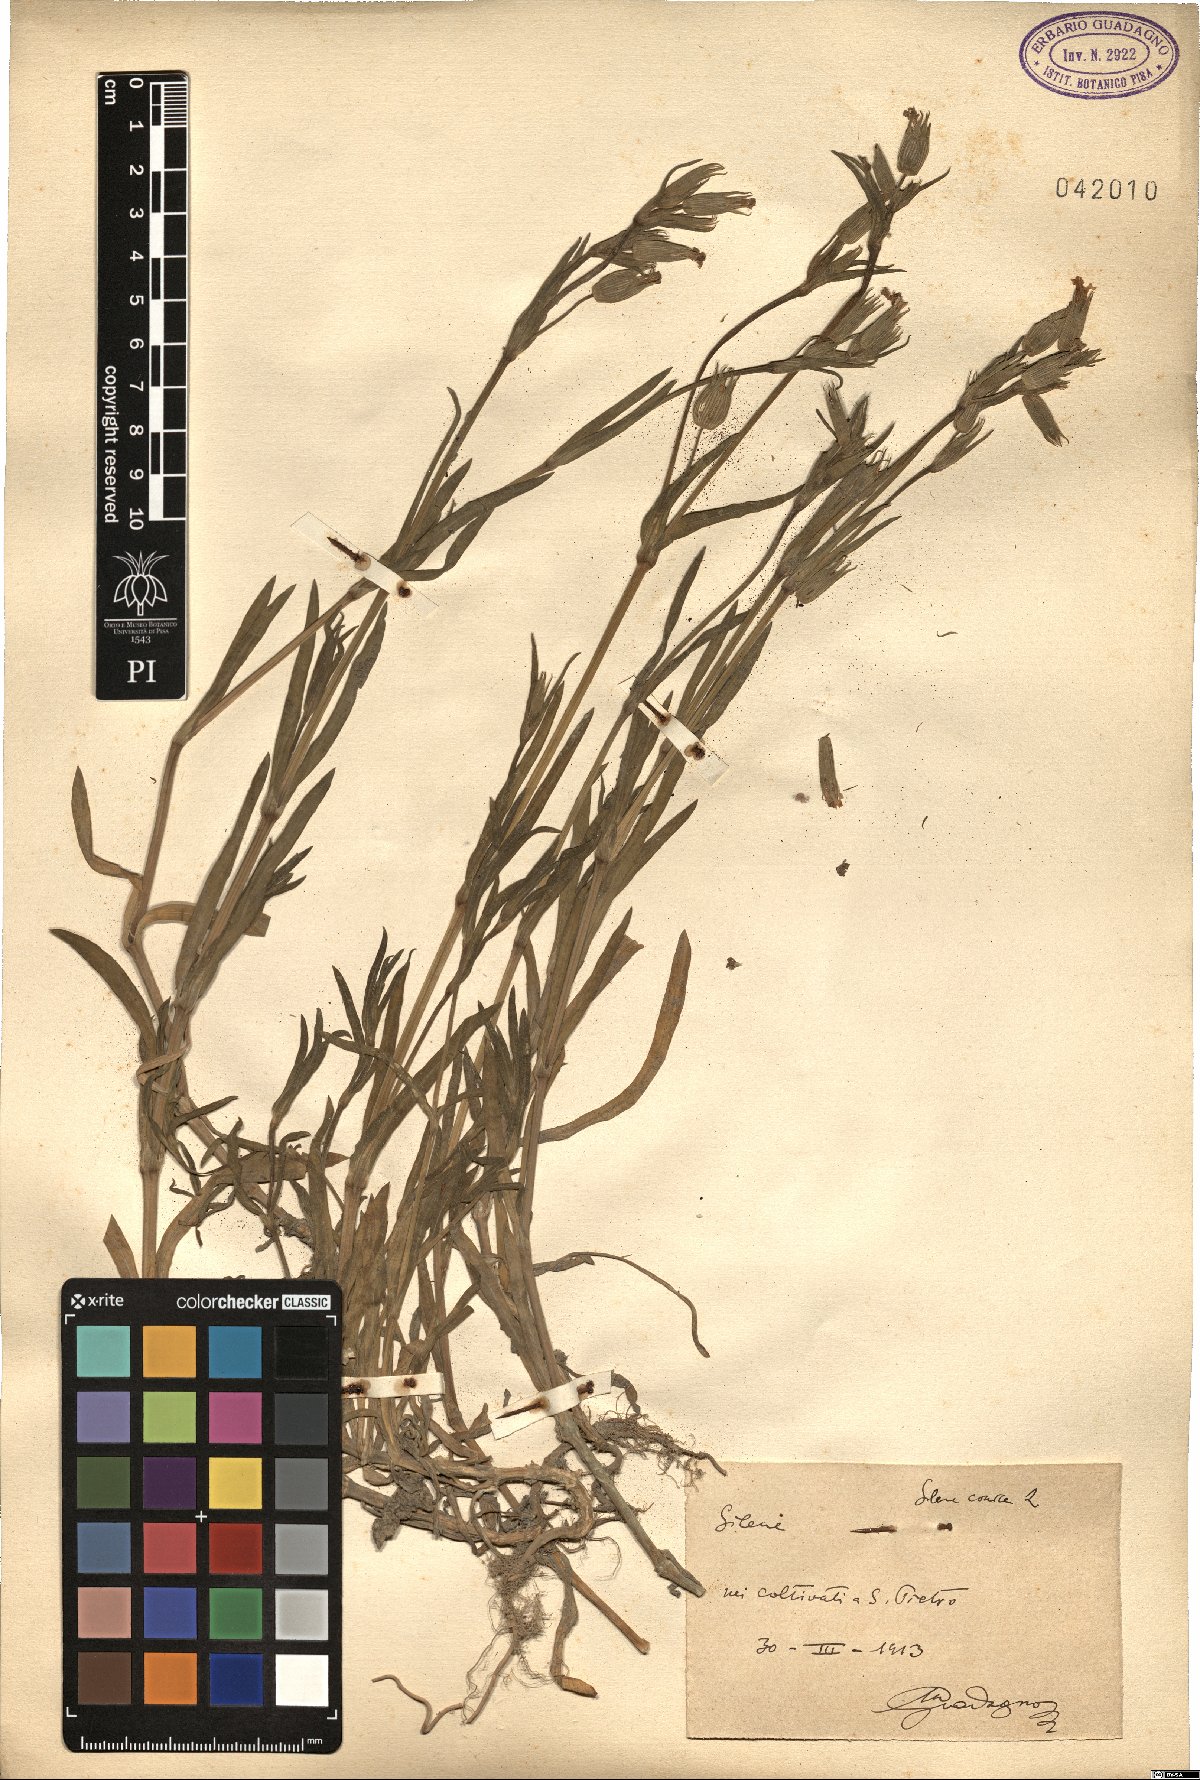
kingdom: Plantae
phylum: Tracheophyta
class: Magnoliopsida
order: Caryophyllales
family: Caryophyllaceae
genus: Silene
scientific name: Silene conica
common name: Sand catchfly
